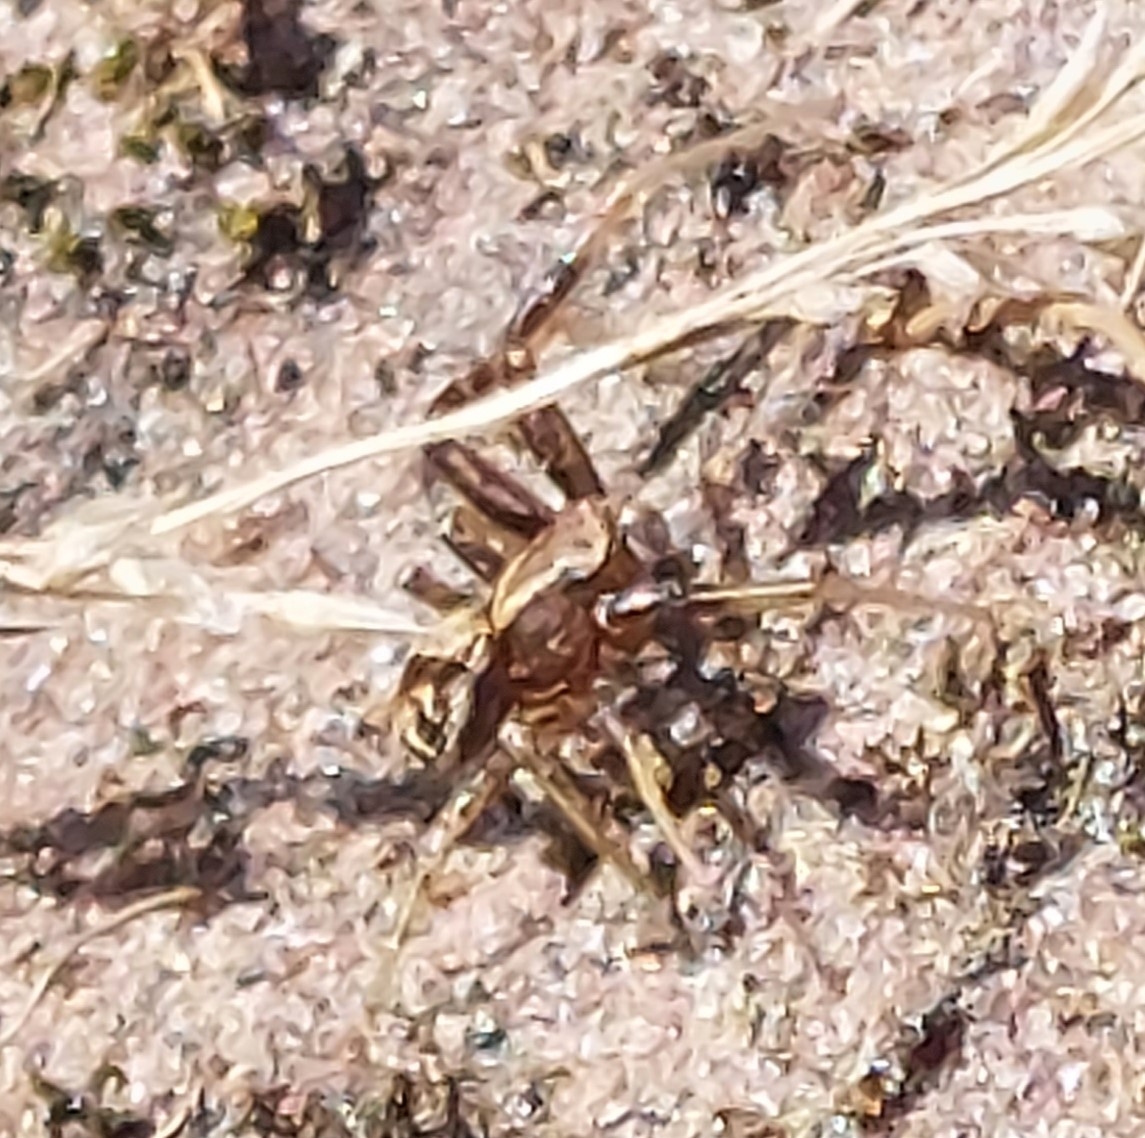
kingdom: Animalia
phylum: Arthropoda
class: Arachnida
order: Araneae
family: Thomisidae
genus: Xysticus
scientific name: Xysticus
